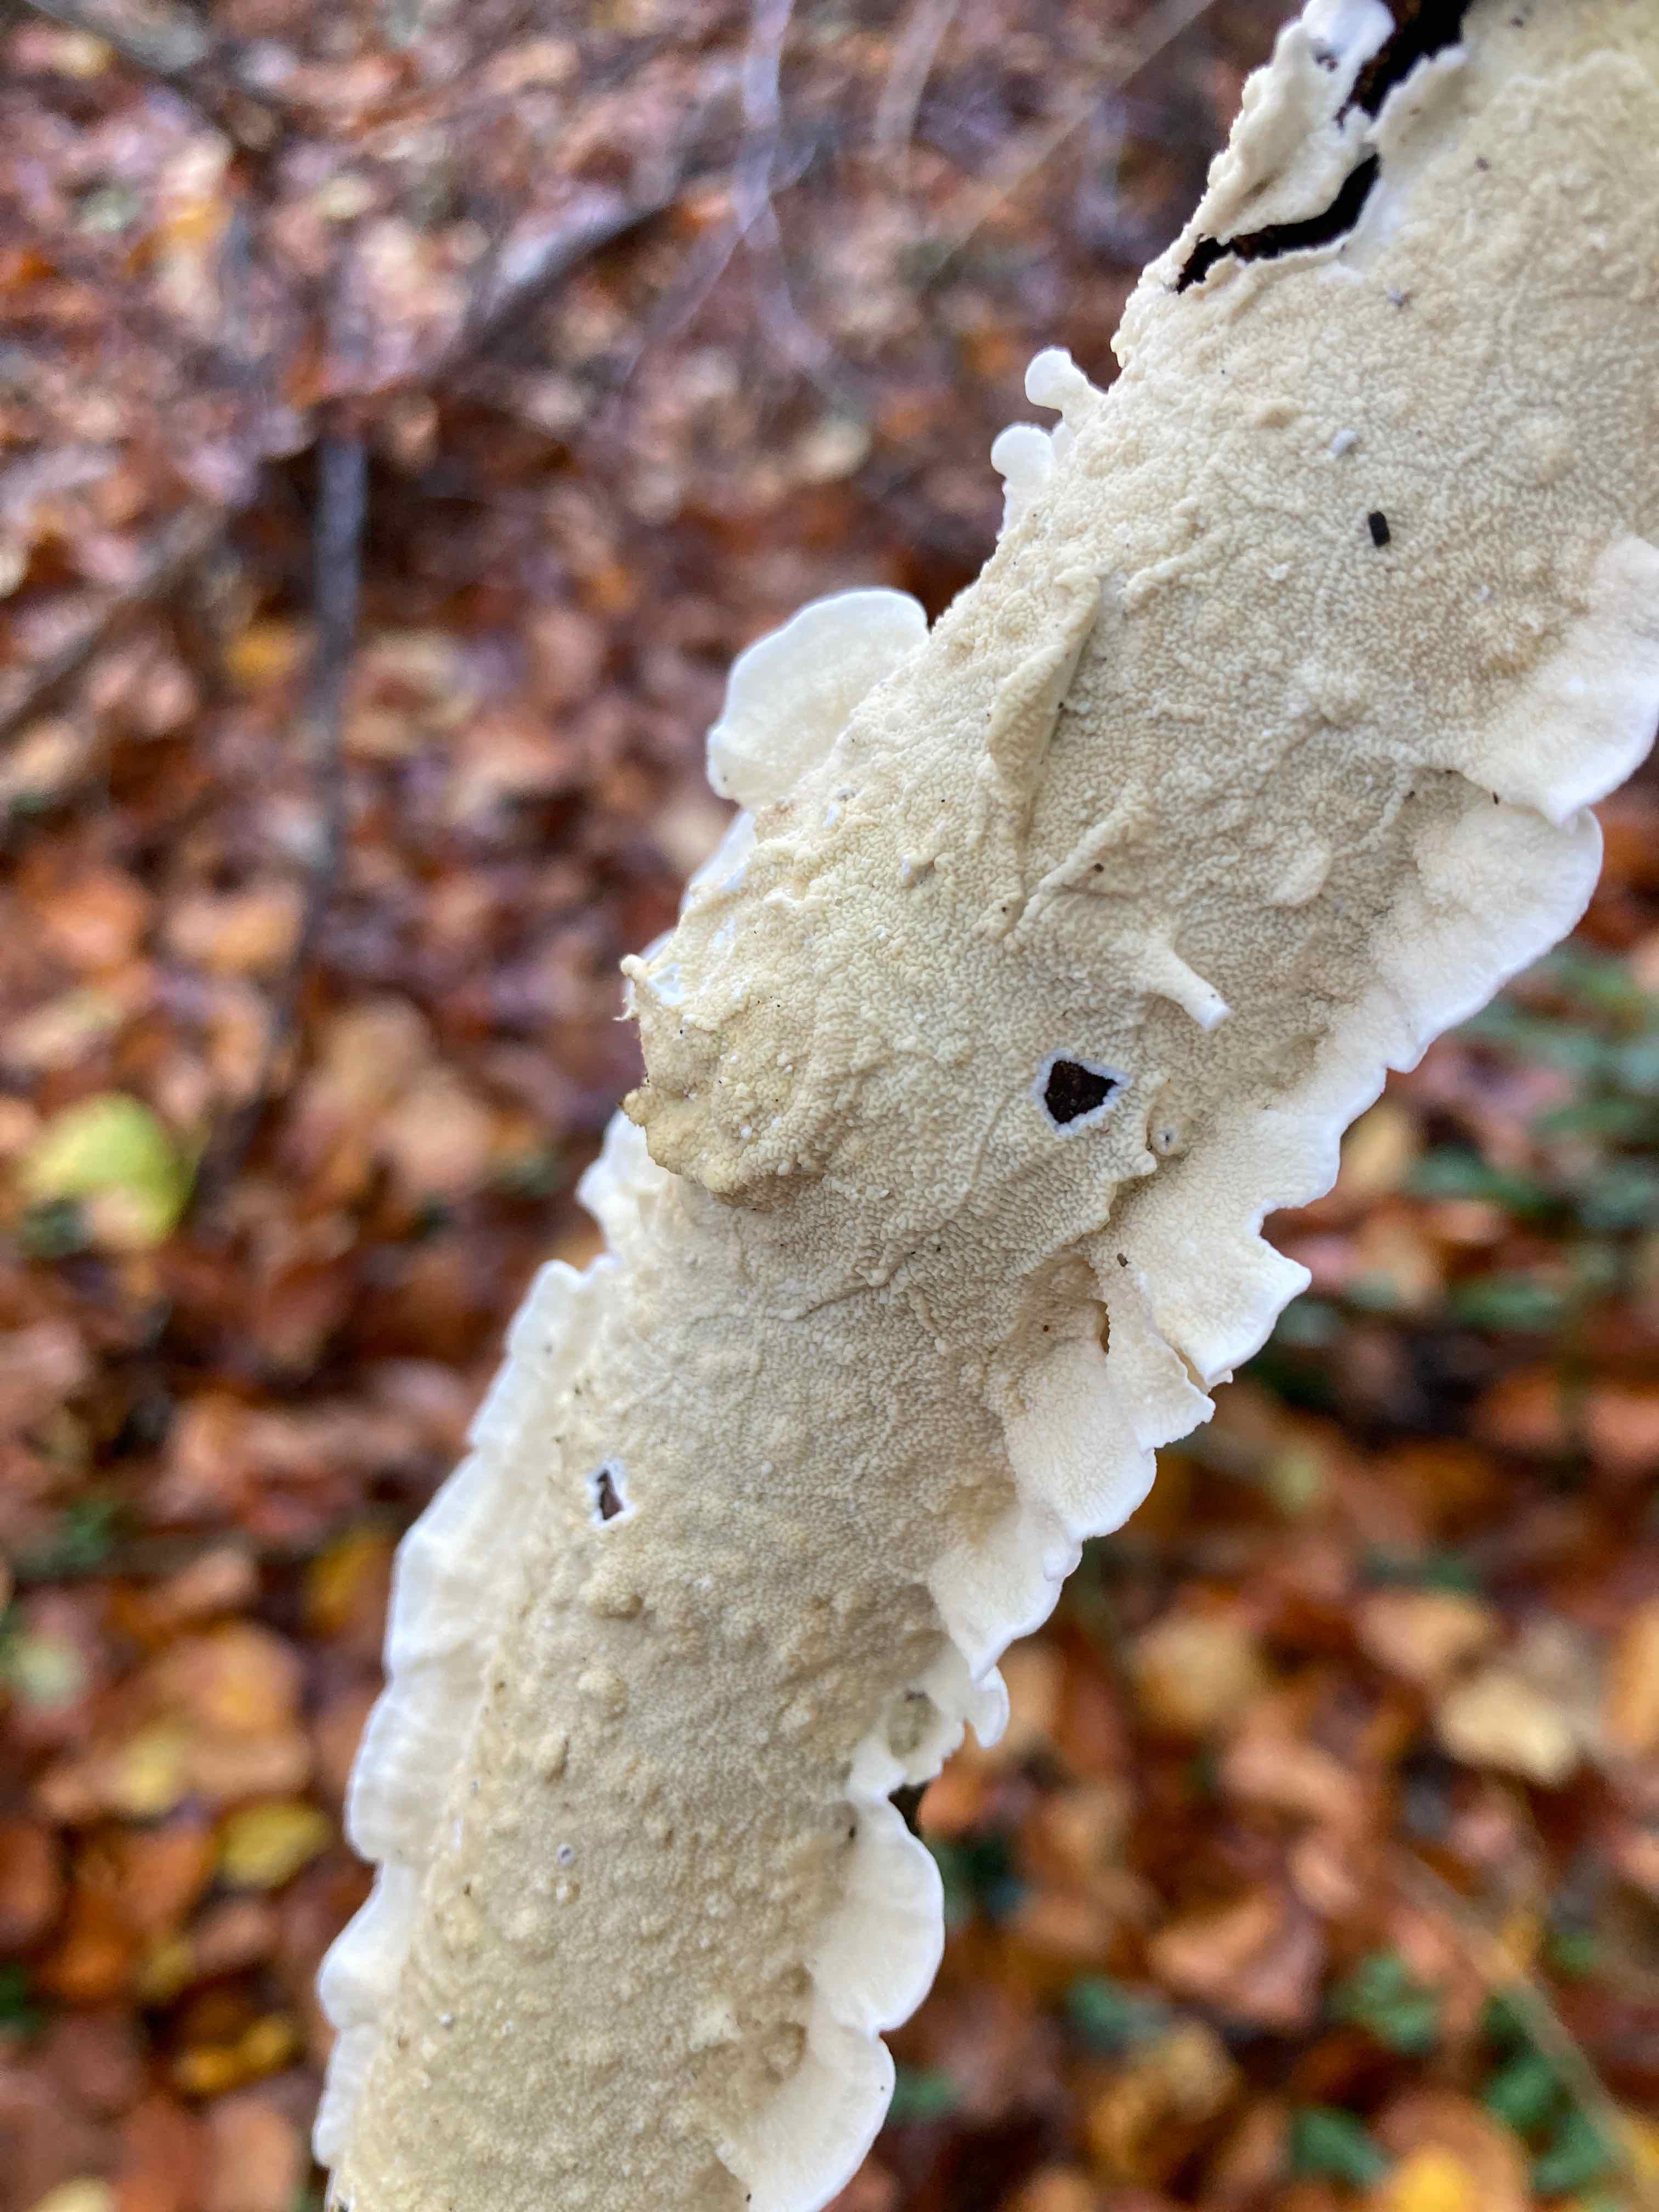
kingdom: Fungi
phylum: Basidiomycota
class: Agaricomycetes
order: Polyporales
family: Irpicaceae
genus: Byssomerulius
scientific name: Byssomerulius corium
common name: læder-åresvamp
